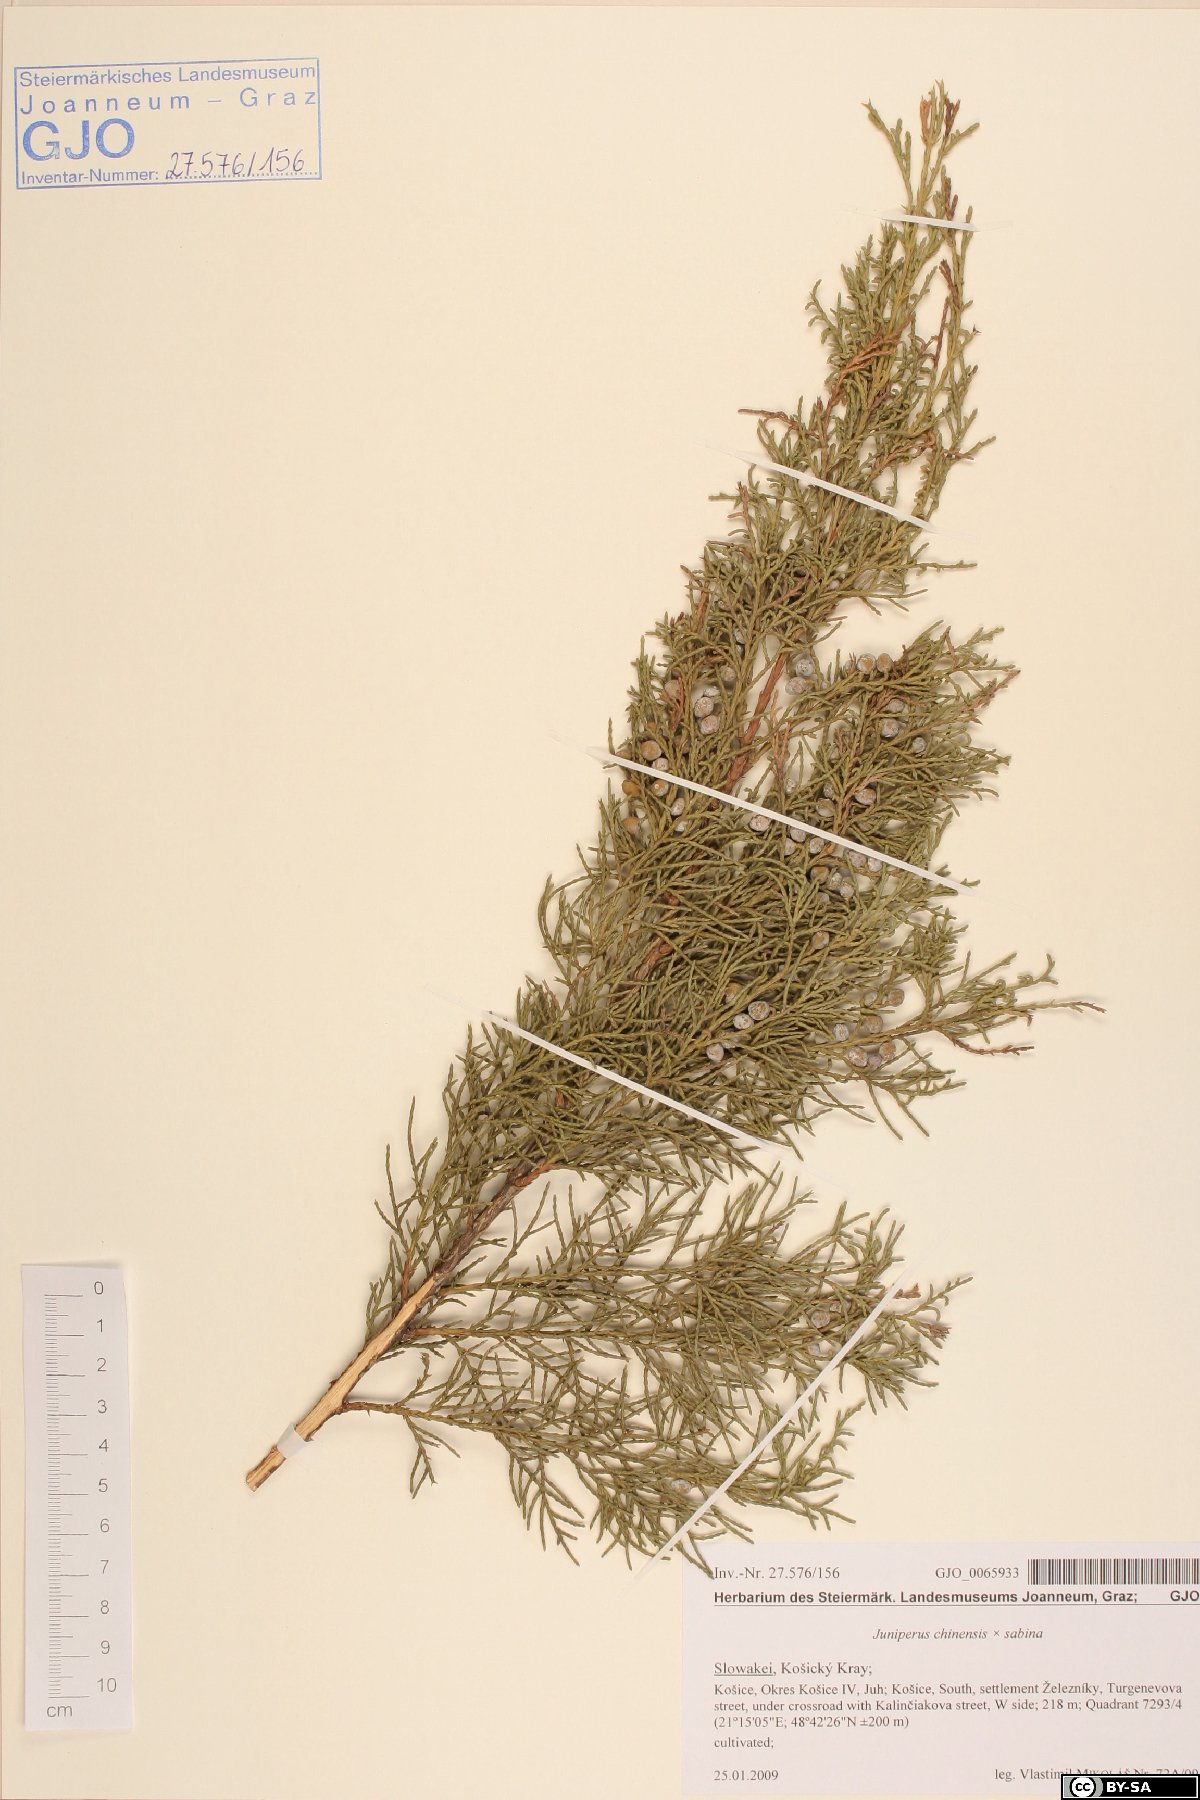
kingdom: Plantae
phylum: Tracheophyta
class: Pinopsida
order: Pinales
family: Cupressaceae
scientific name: Cupressaceae
